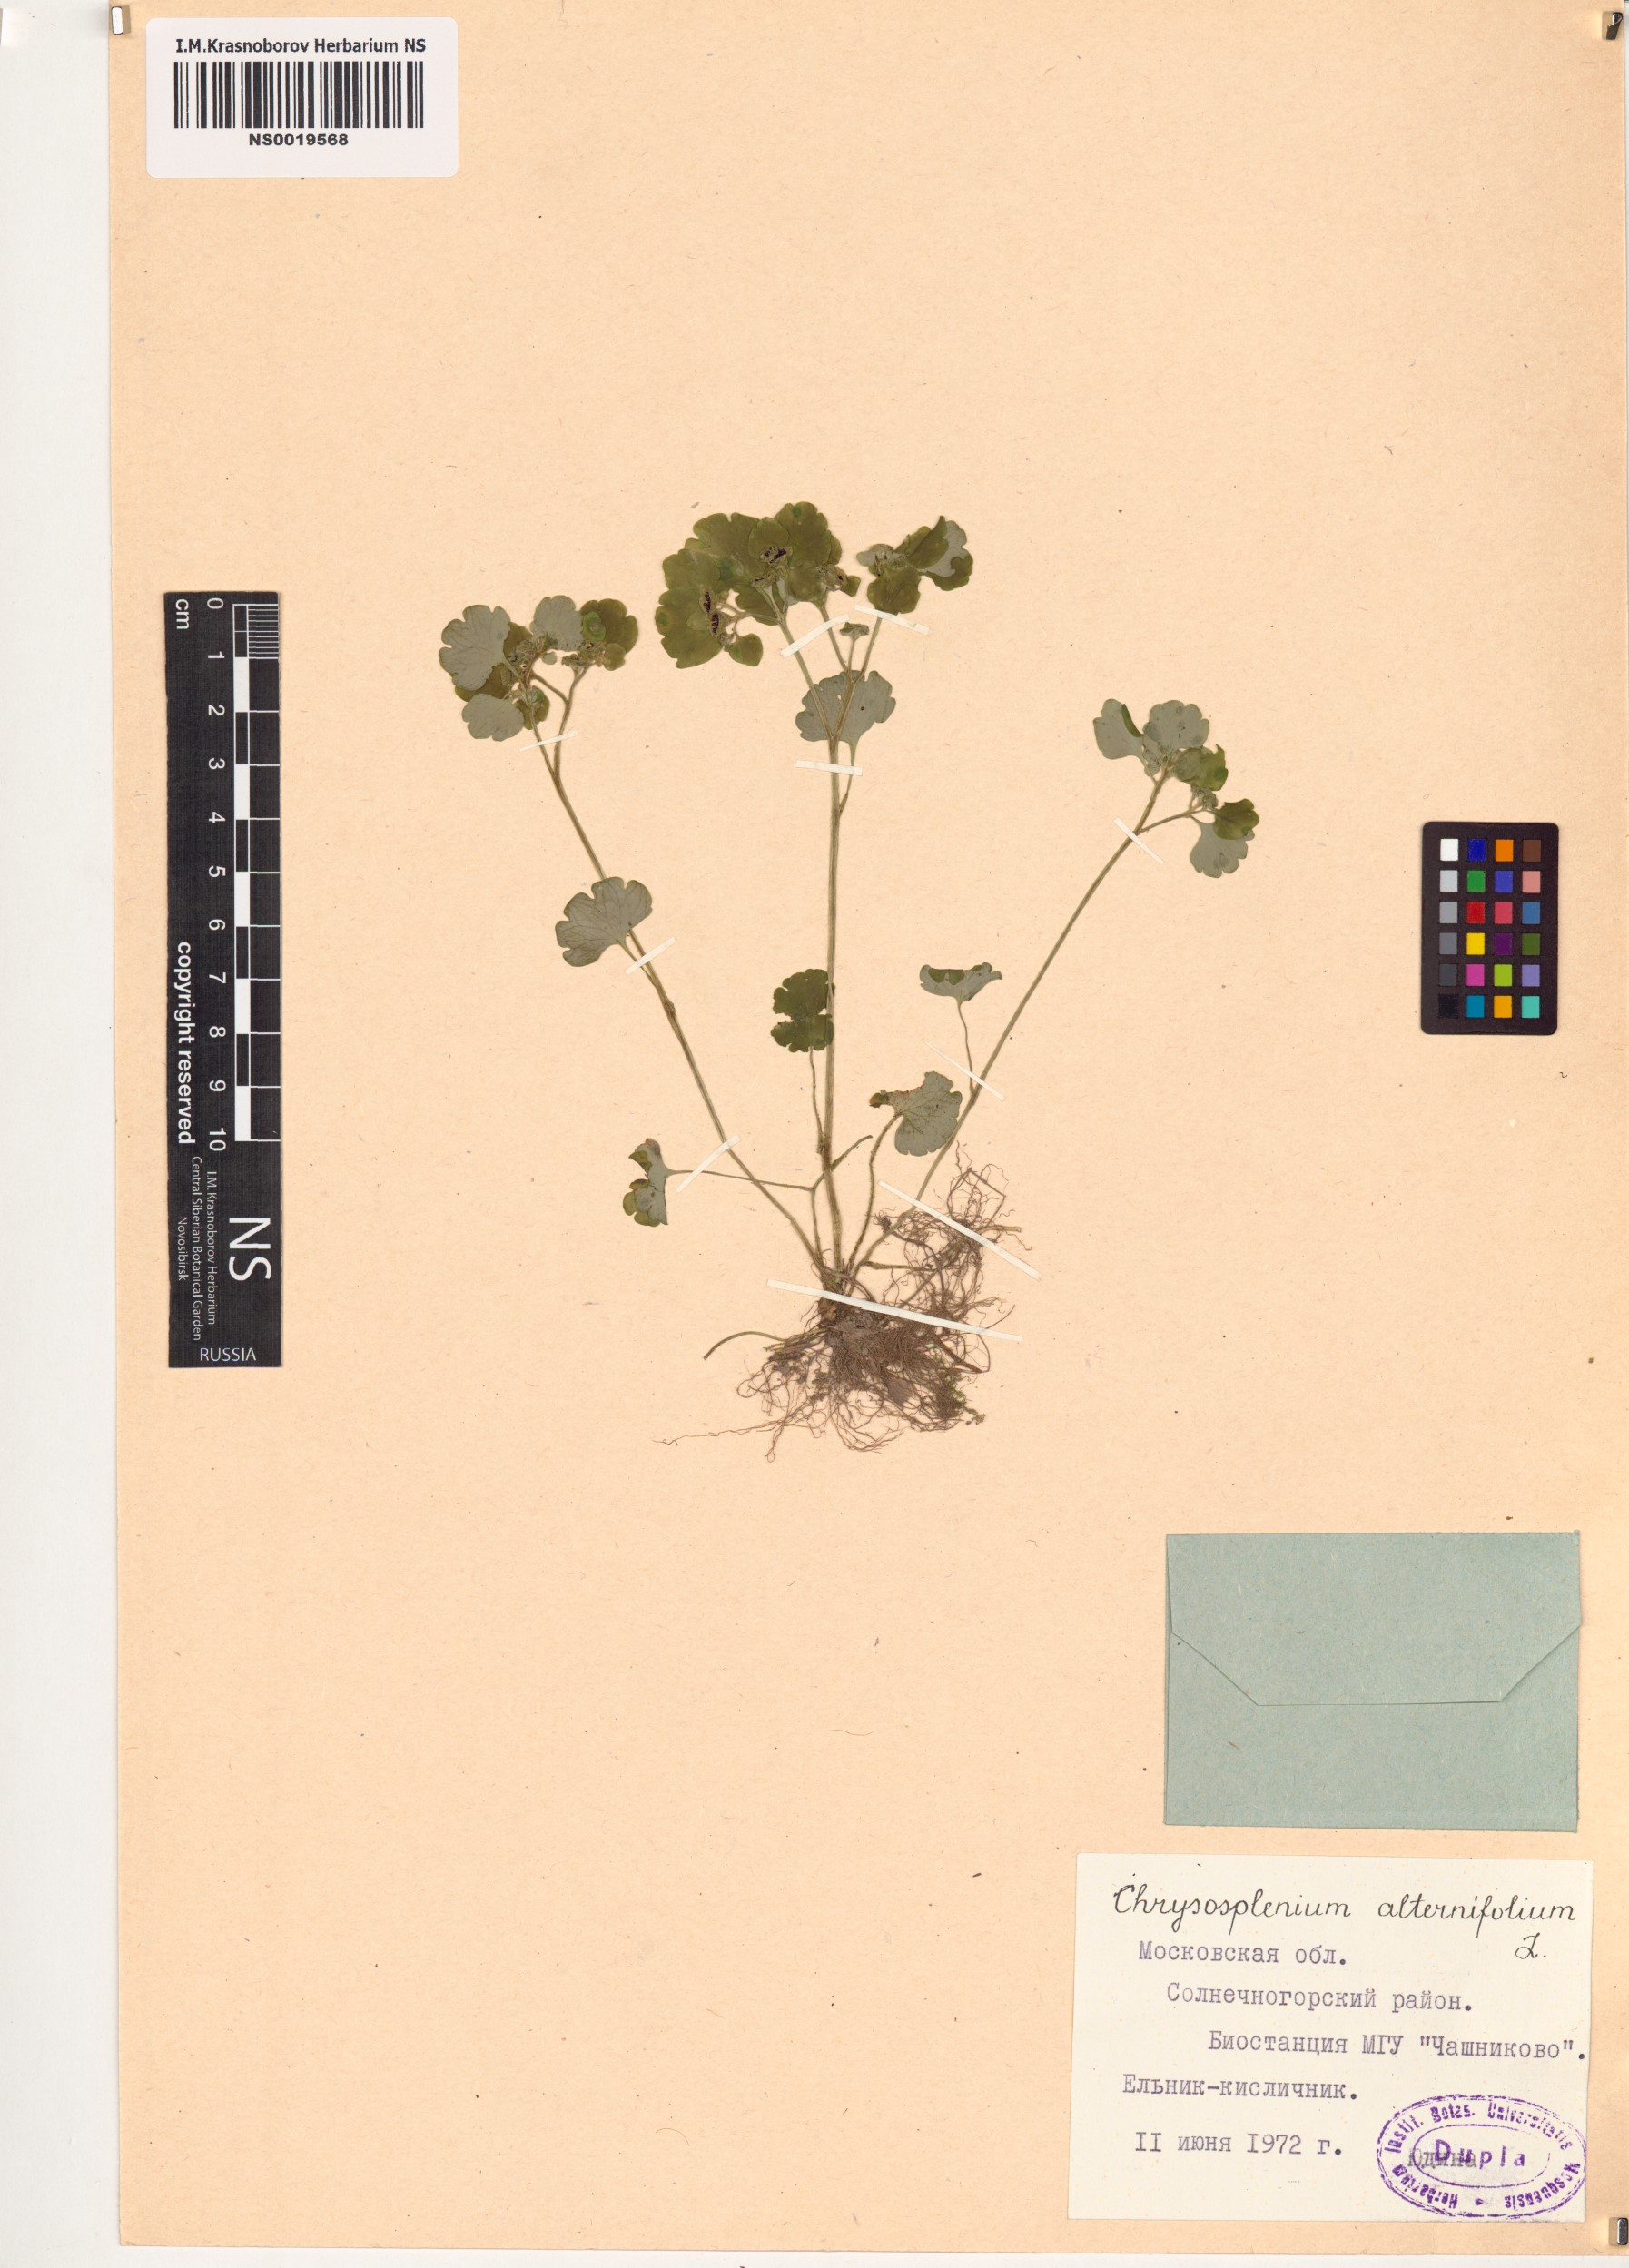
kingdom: Plantae
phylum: Tracheophyta
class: Magnoliopsida
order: Saxifragales
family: Saxifragaceae
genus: Chrysosplenium
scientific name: Chrysosplenium alternifolium
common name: Alternate-leaved golden-saxifrage
